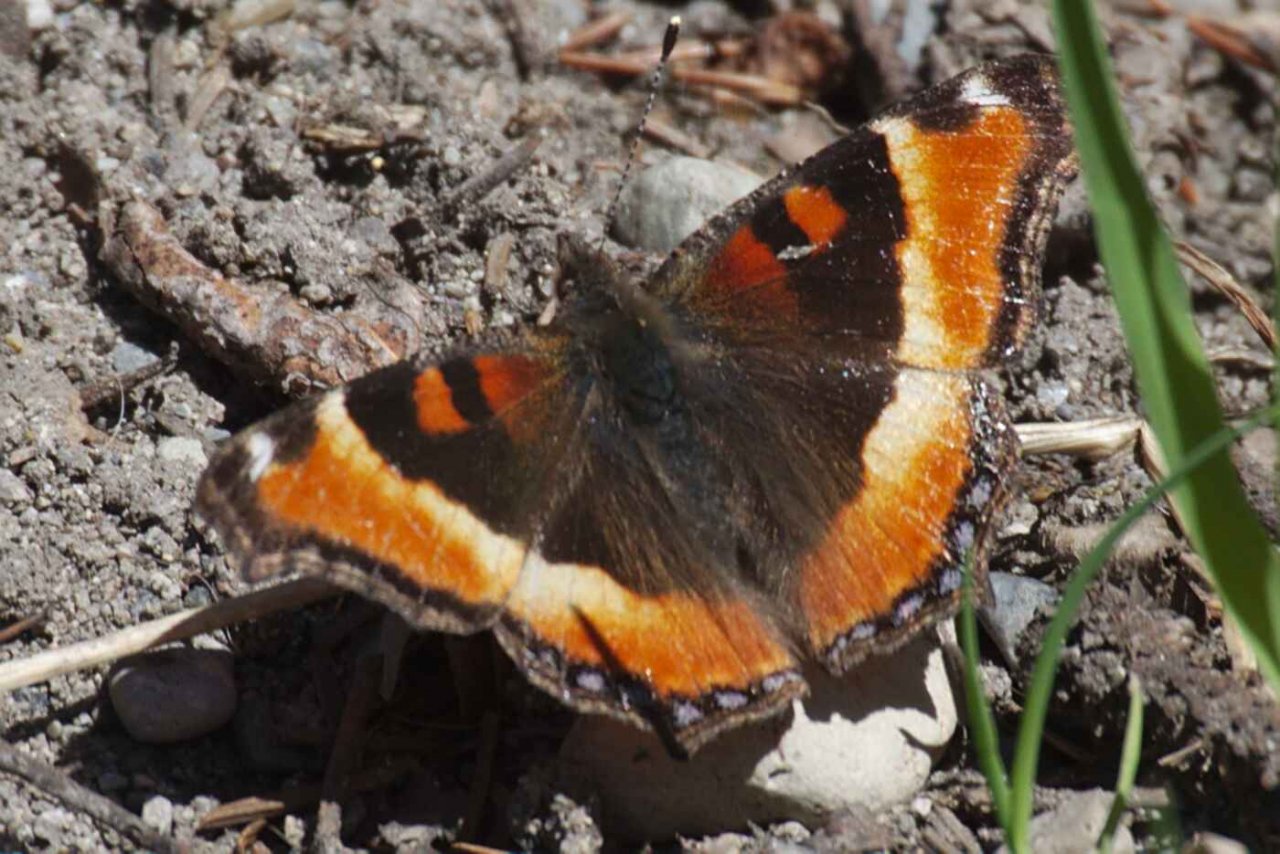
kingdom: Animalia
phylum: Arthropoda
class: Insecta
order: Lepidoptera
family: Nymphalidae
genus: Aglais
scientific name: Aglais milberti
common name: Milbert's Tortoiseshell
